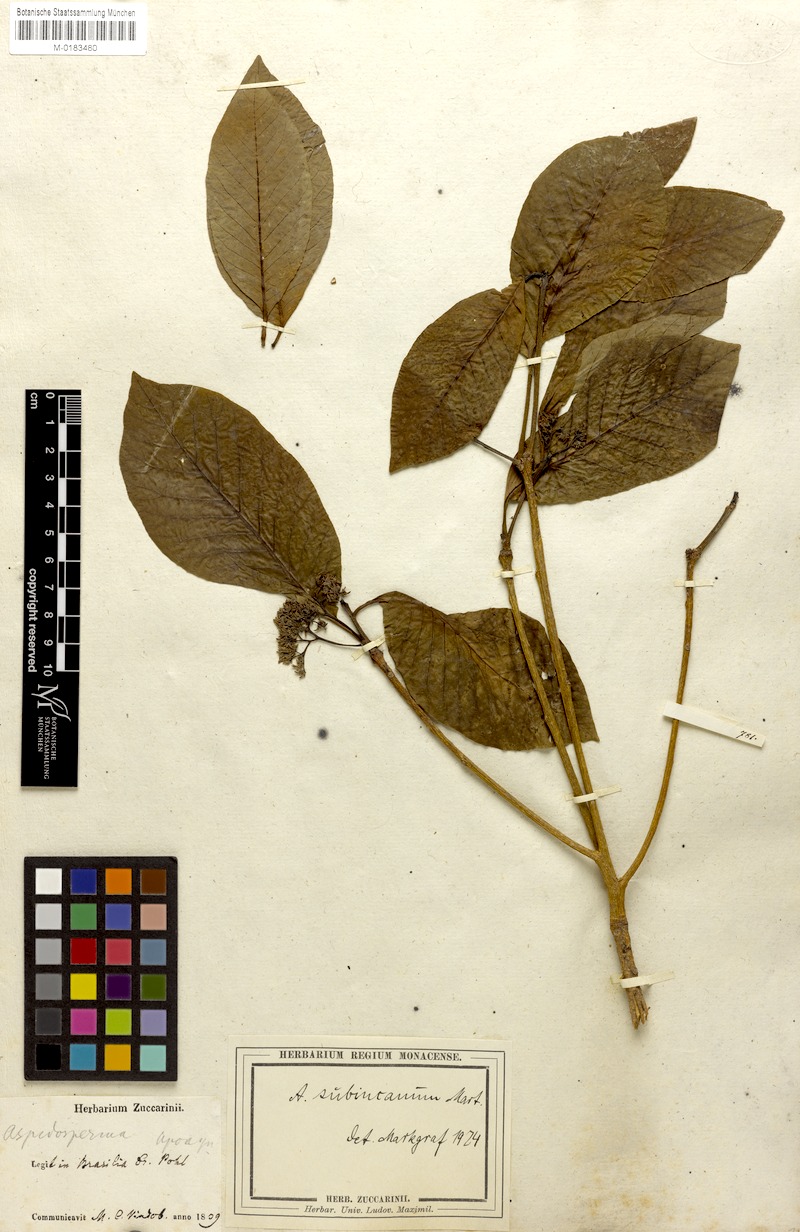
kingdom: Plantae
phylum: Tracheophyta
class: Magnoliopsida
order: Gentianales
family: Apocynaceae
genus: Aspidosperma
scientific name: Aspidosperma subincanum
